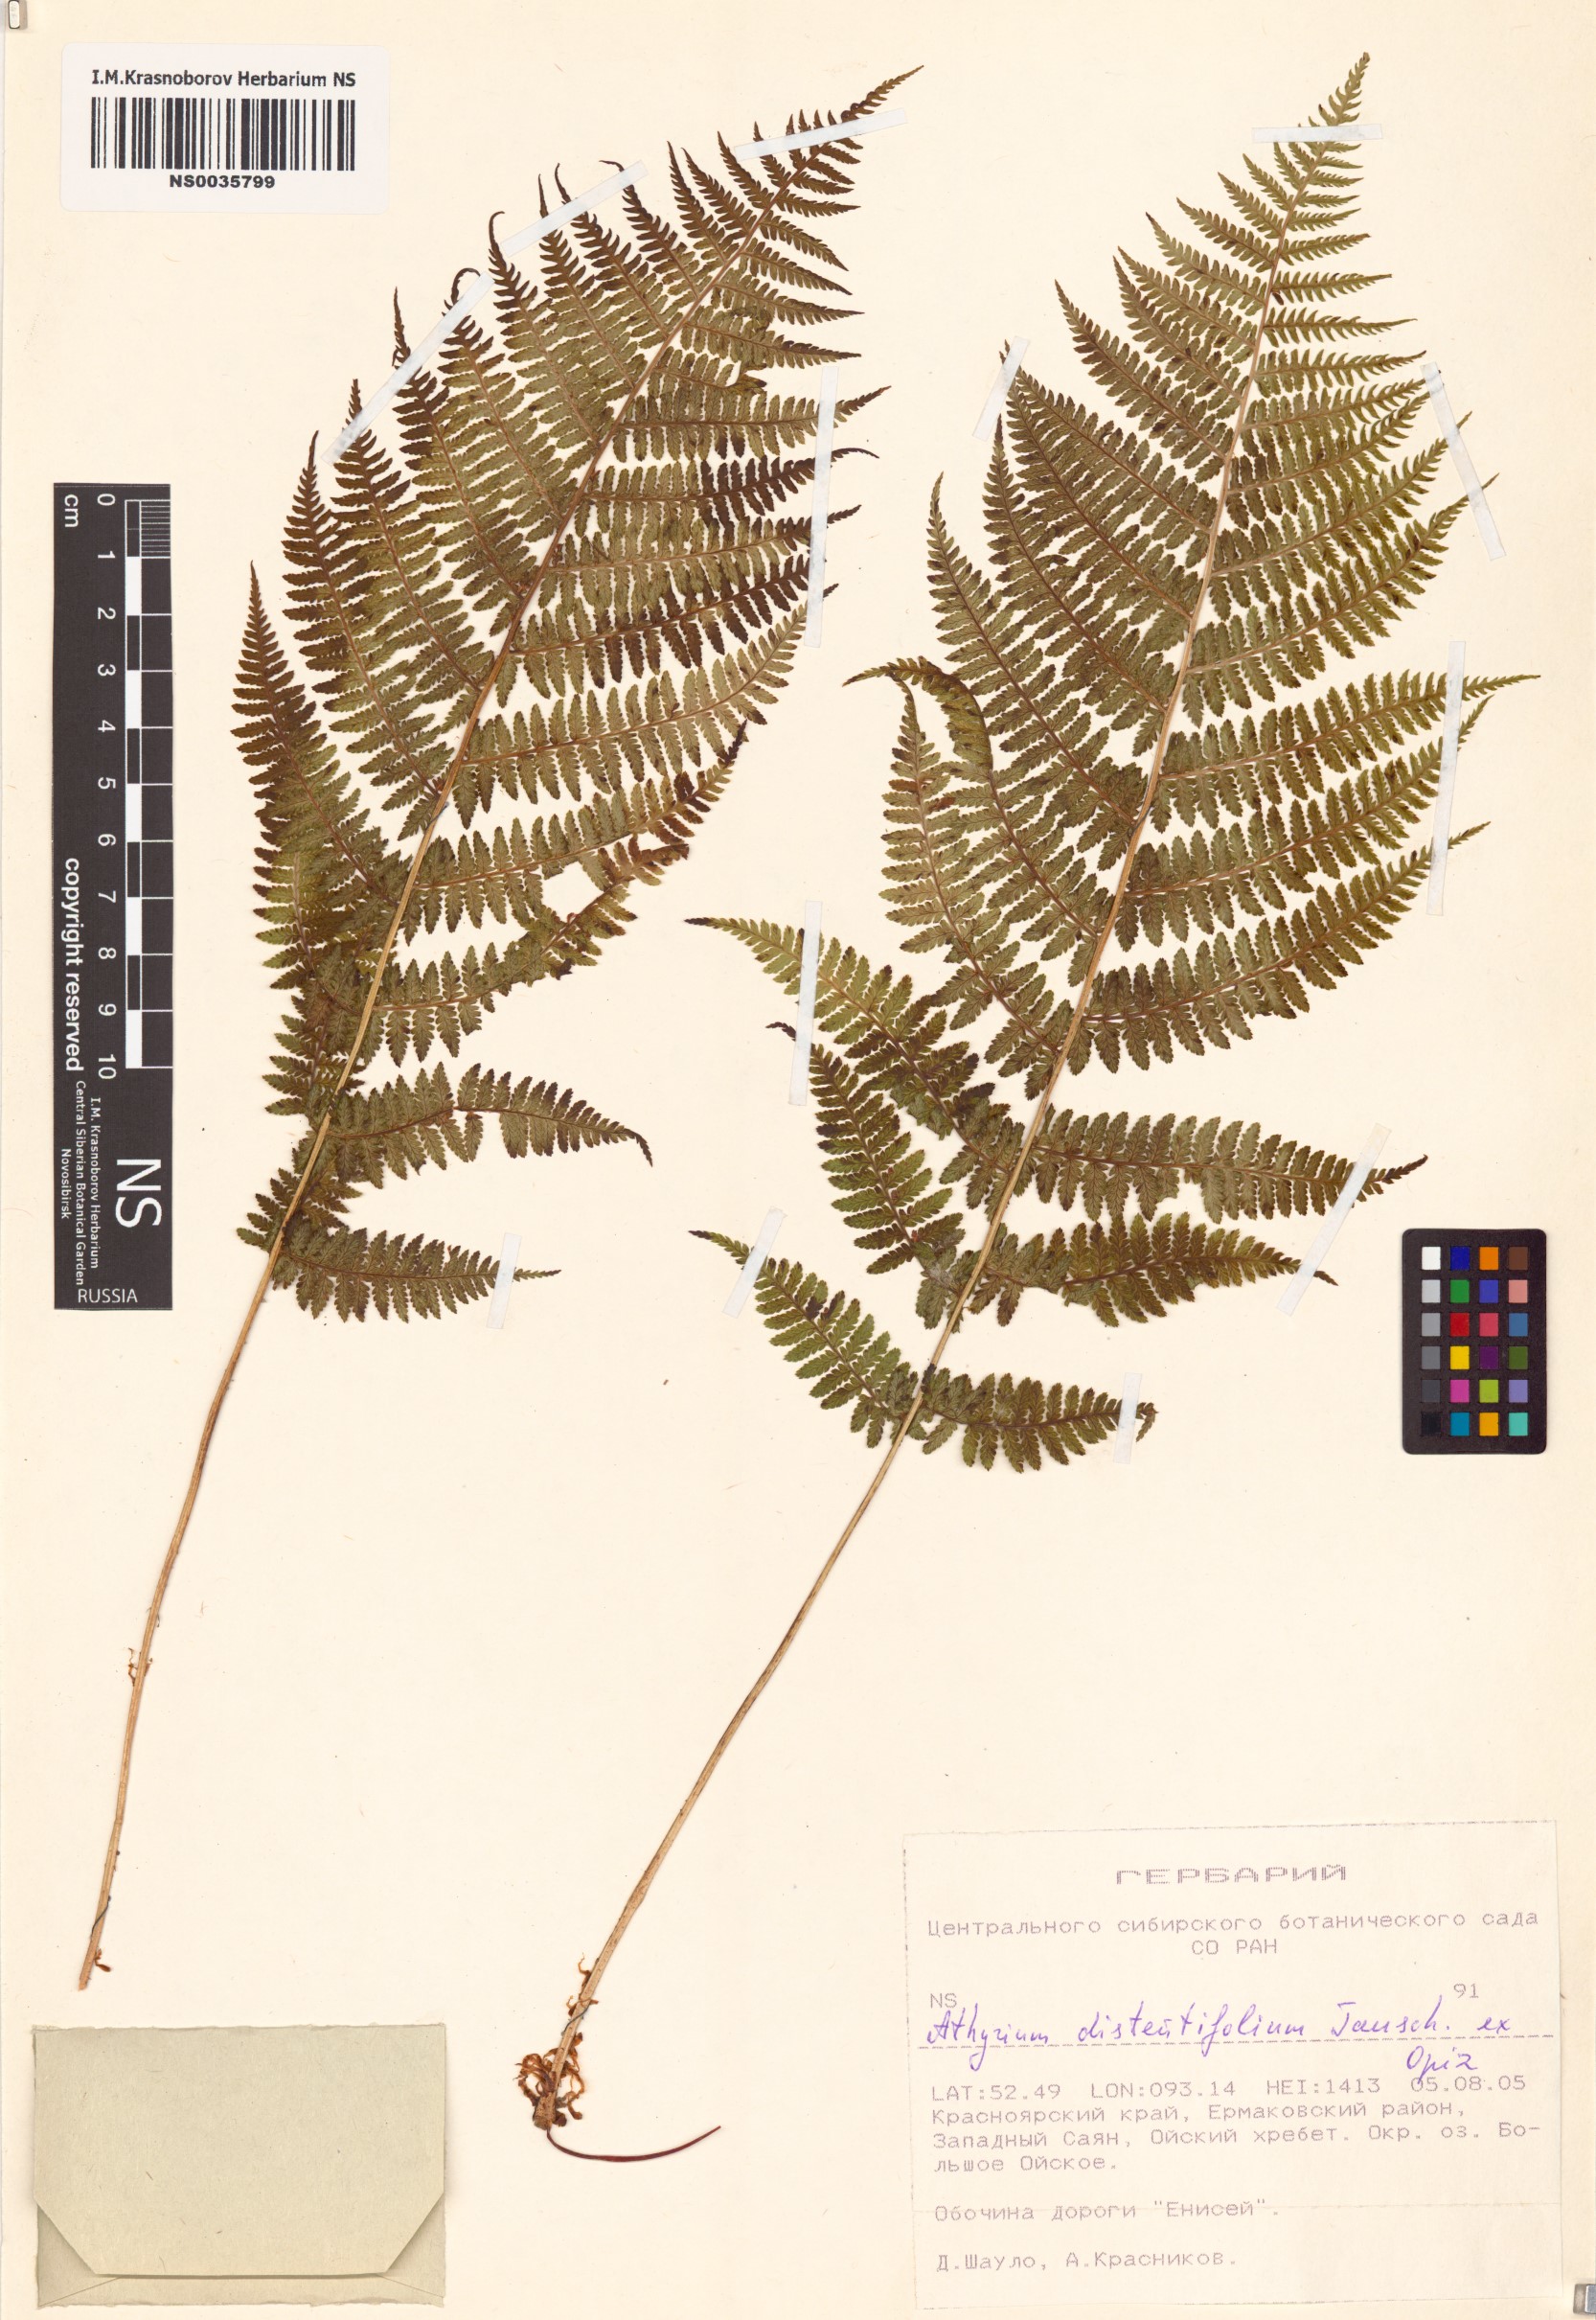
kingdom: Plantae
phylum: Tracheophyta
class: Polypodiopsida
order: Polypodiales
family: Athyriaceae
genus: Pseudathyrium
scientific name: Pseudathyrium alpestre
